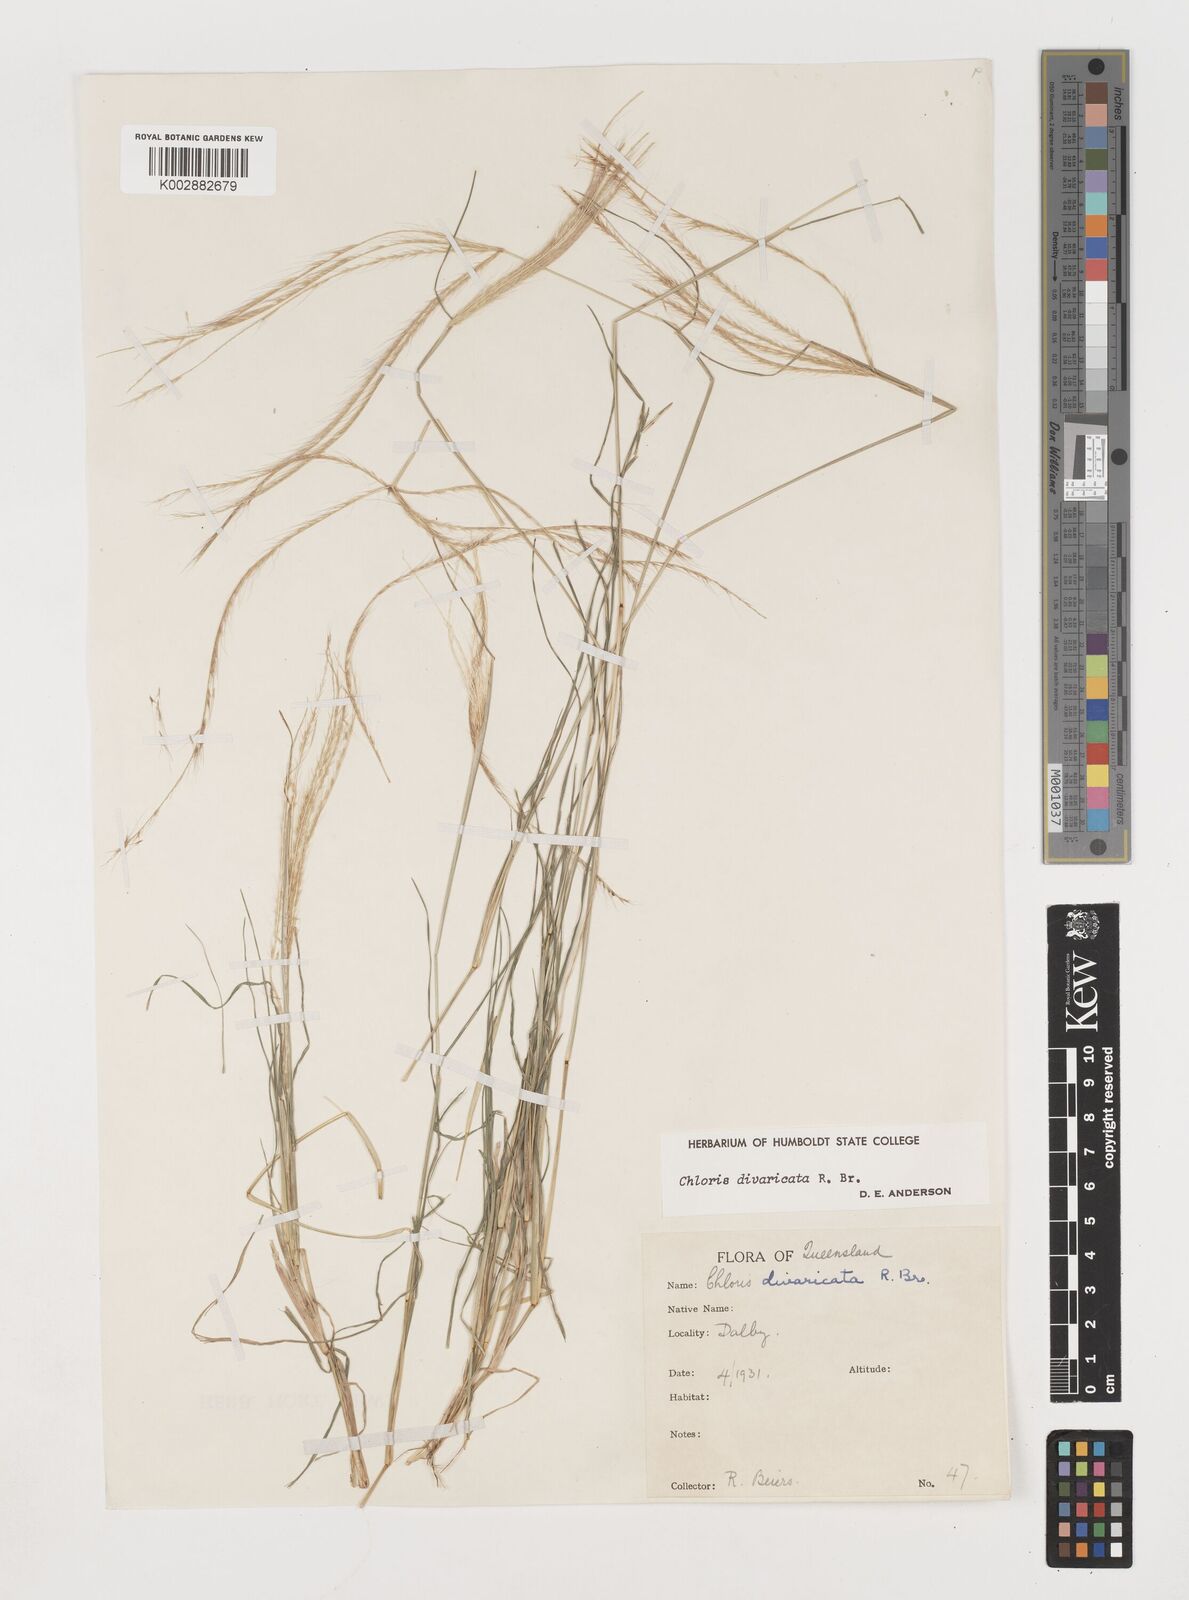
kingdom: Plantae
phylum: Tracheophyta
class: Liliopsida
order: Poales
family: Poaceae
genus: Chloris
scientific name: Chloris divaricata
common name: Spreading windmill grass
